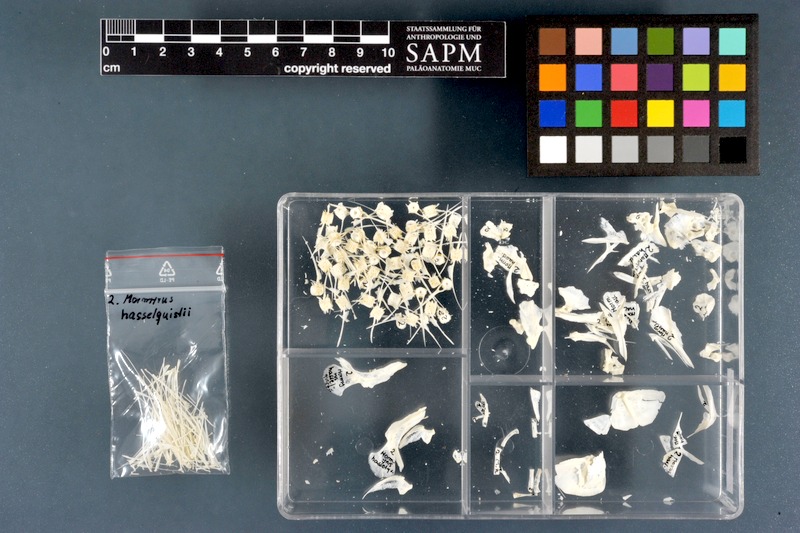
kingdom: Animalia
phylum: Chordata
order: Osteoglossiformes
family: Mormyridae
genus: Mormyrus
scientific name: Mormyrus hasselquistii
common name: Elephant snout
